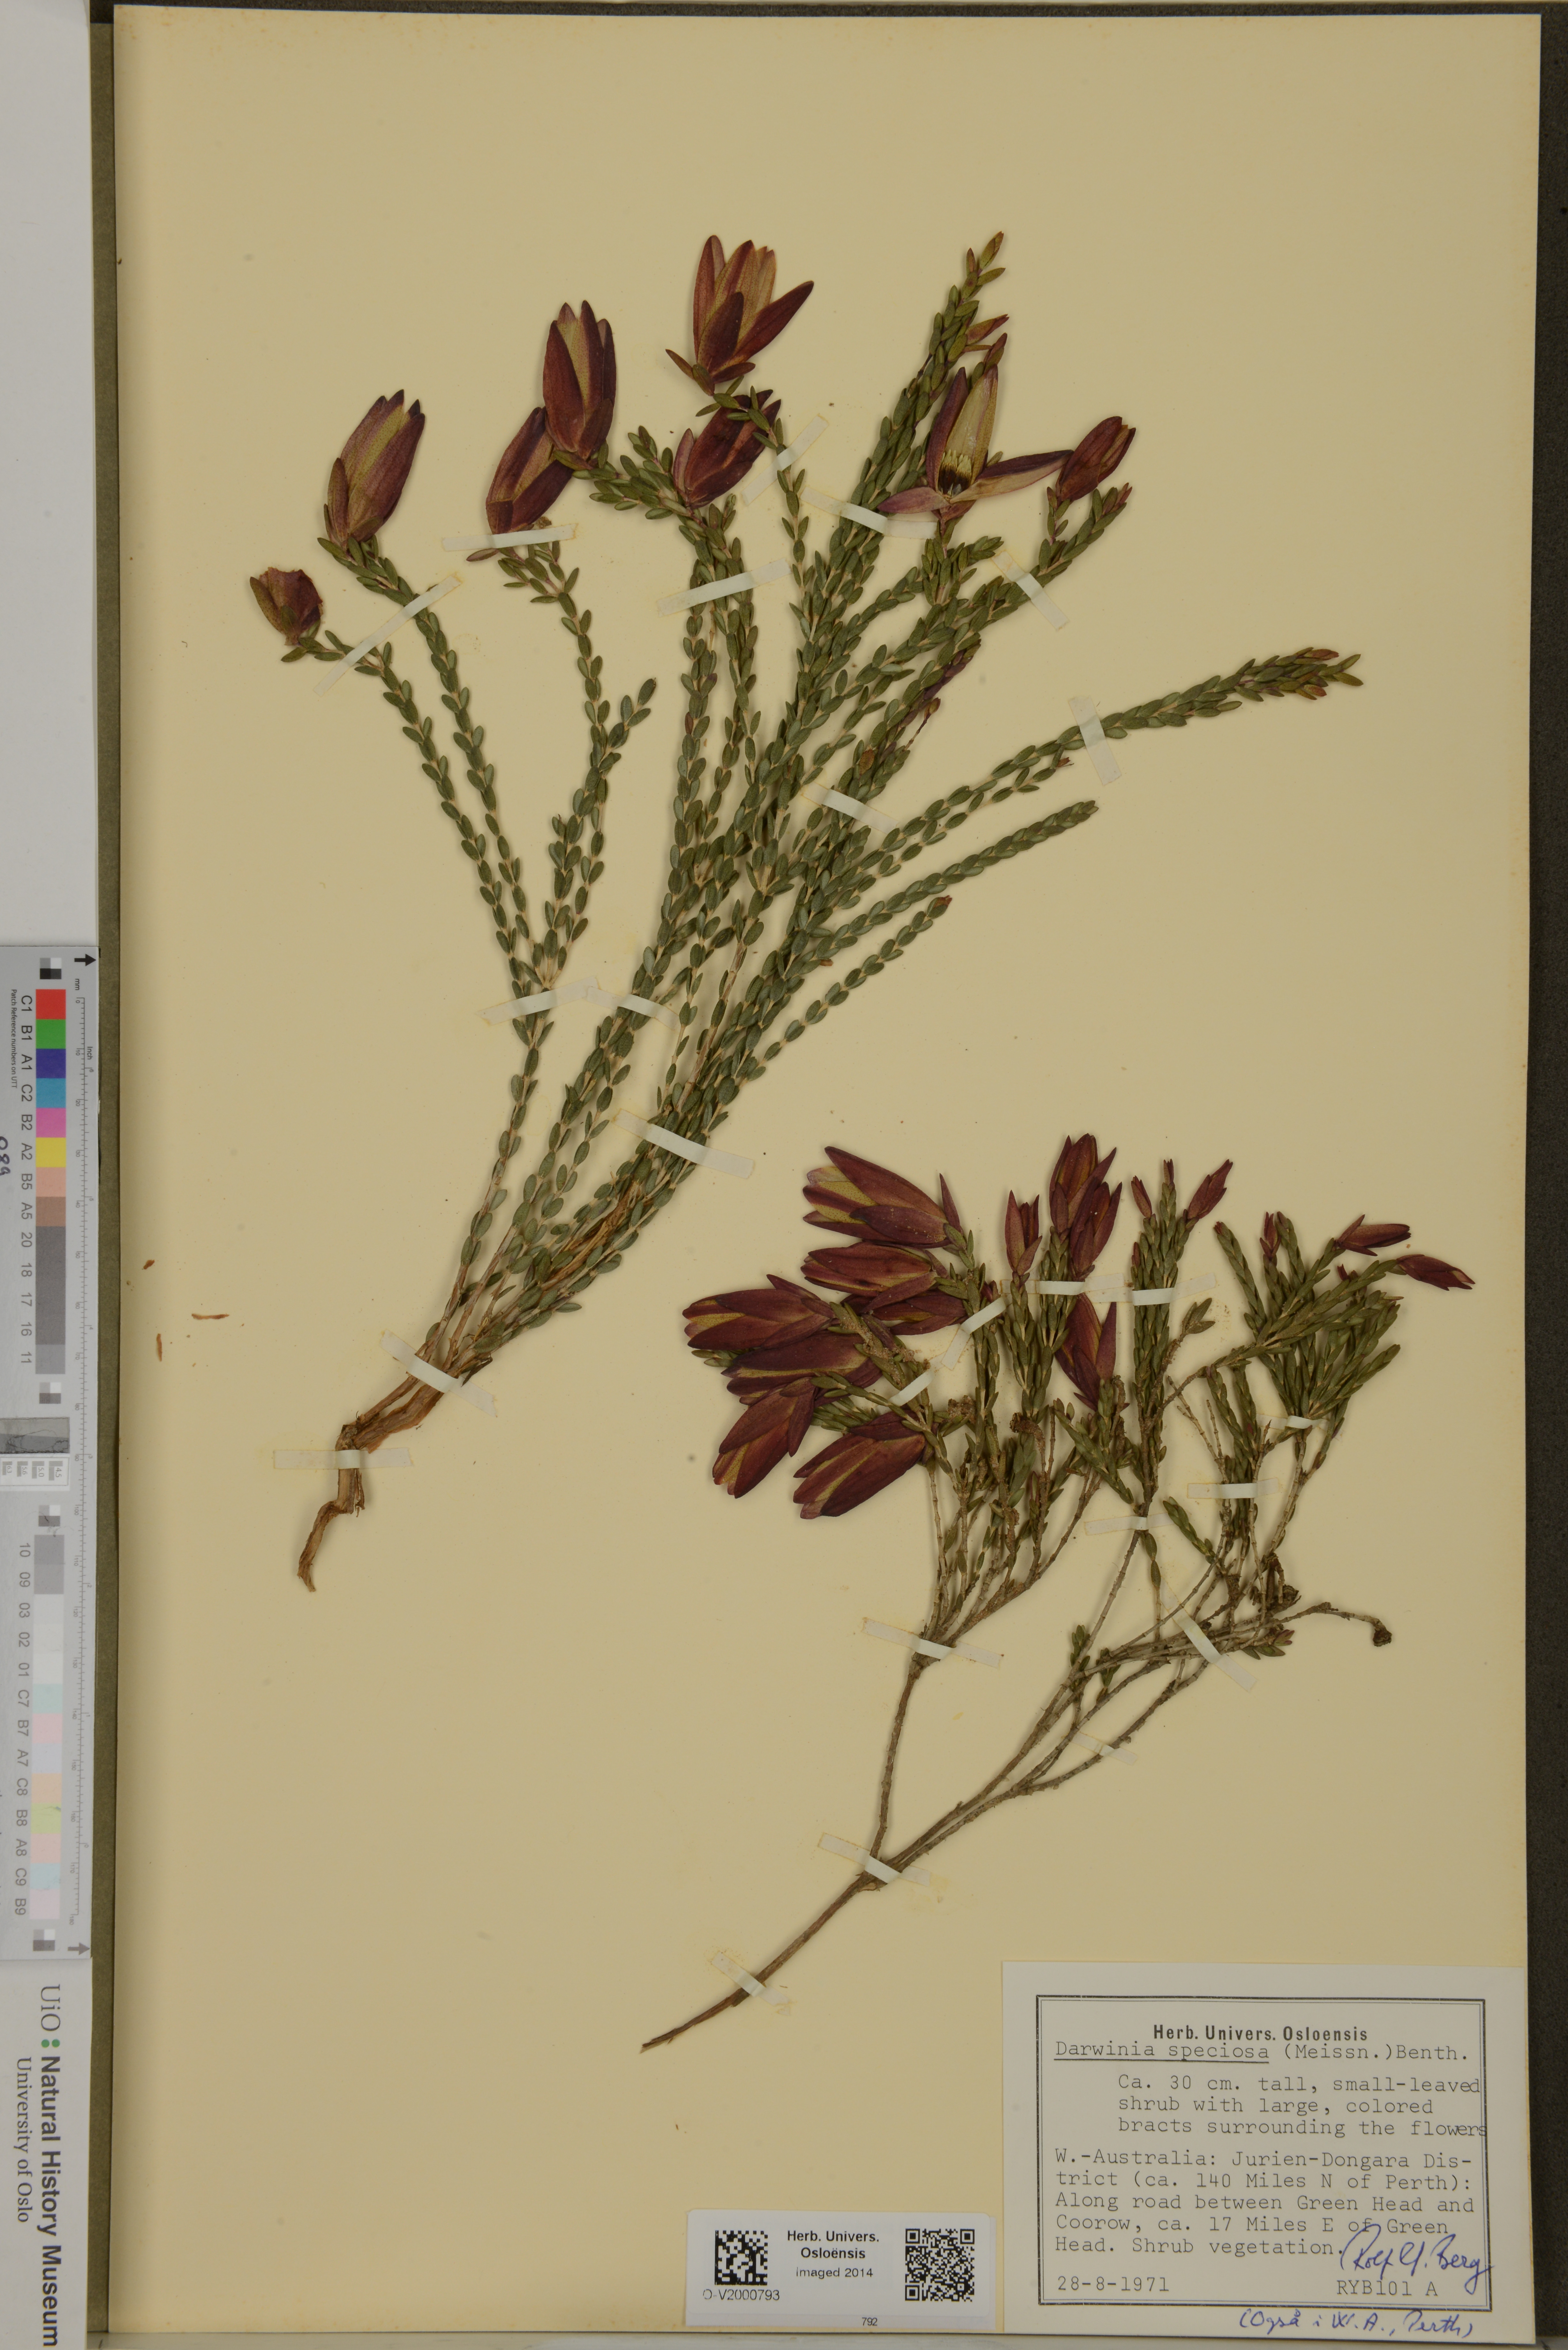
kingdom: Plantae
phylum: Tracheophyta
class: Magnoliopsida
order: Myrtales
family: Myrtaceae
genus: Darwinia
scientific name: Darwinia speciosa
